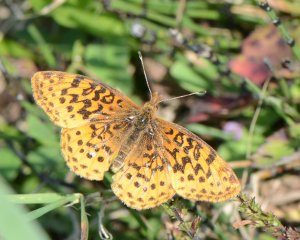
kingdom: Animalia
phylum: Arthropoda
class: Insecta
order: Lepidoptera
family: Nymphalidae
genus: Clossiana
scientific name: Clossiana toddi
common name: Meadow Fritillary
